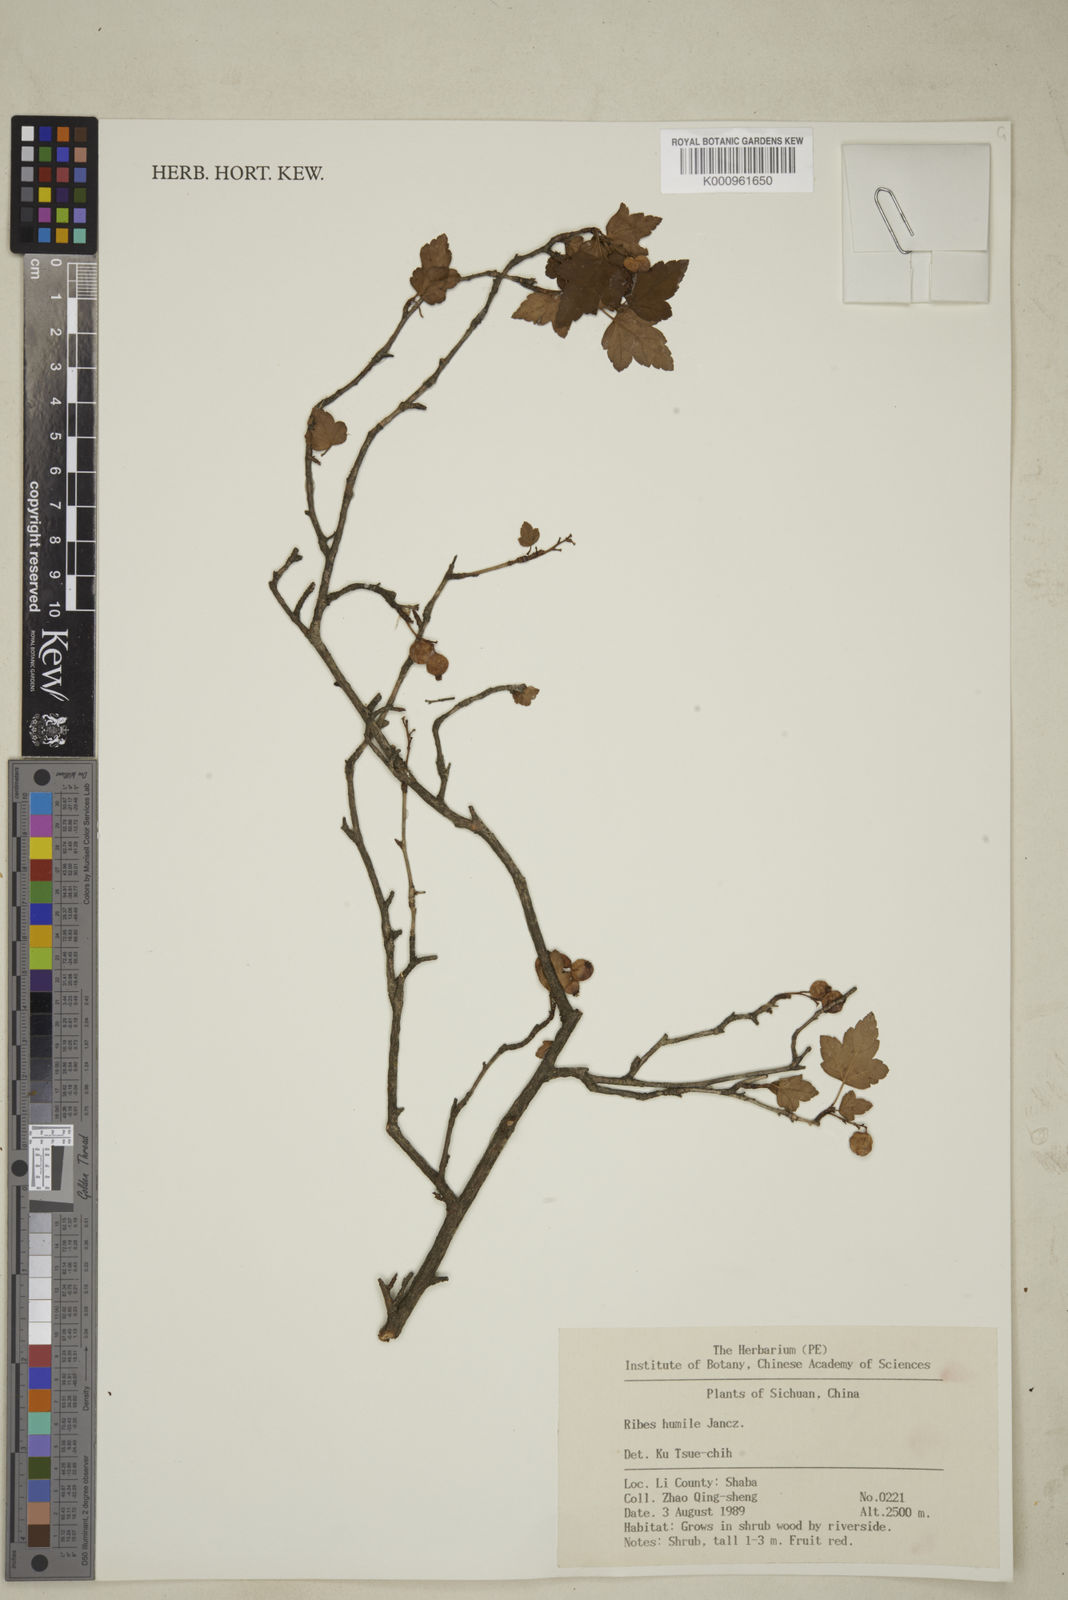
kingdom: Plantae
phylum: Tracheophyta
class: Magnoliopsida
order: Saxifragales
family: Grossulariaceae
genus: Ribes
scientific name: Ribes humile
